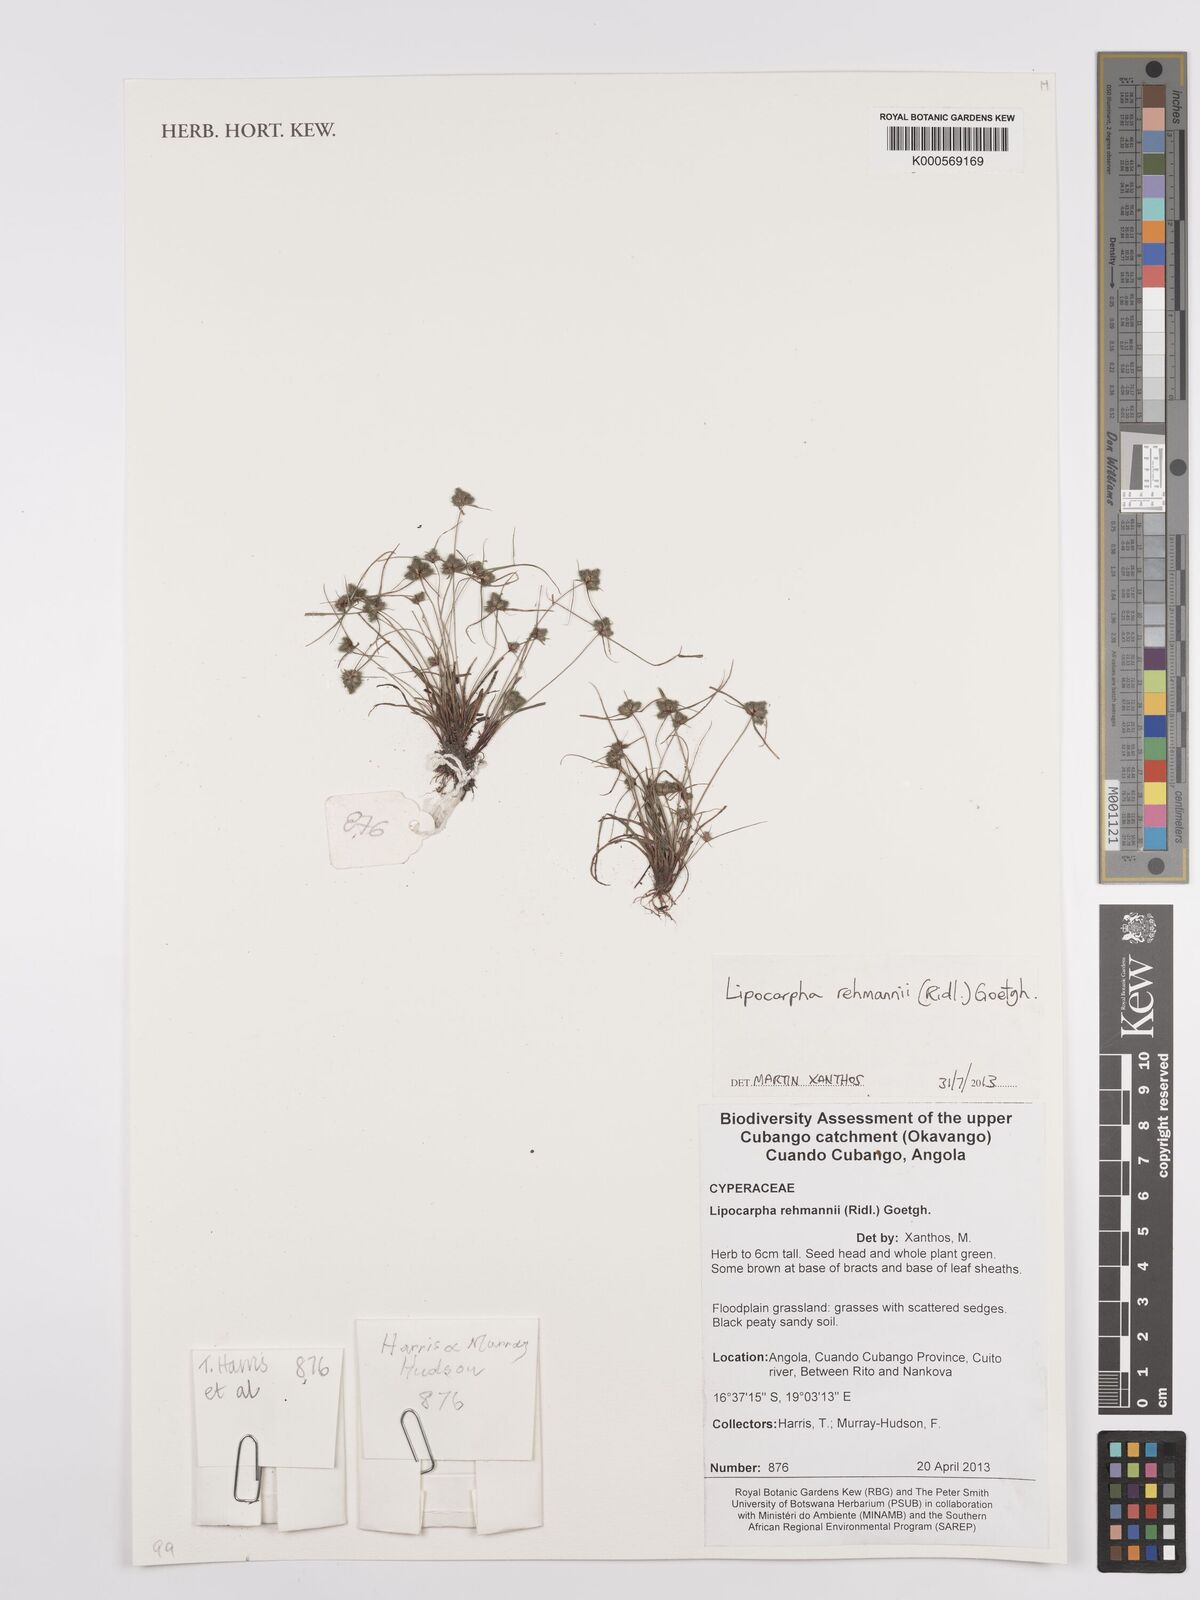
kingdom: Plantae
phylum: Tracheophyta
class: Liliopsida
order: Poales
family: Cyperaceae
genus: Cyperus
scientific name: Cyperus sanguinolentus
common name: Purpleglume flatsedge
